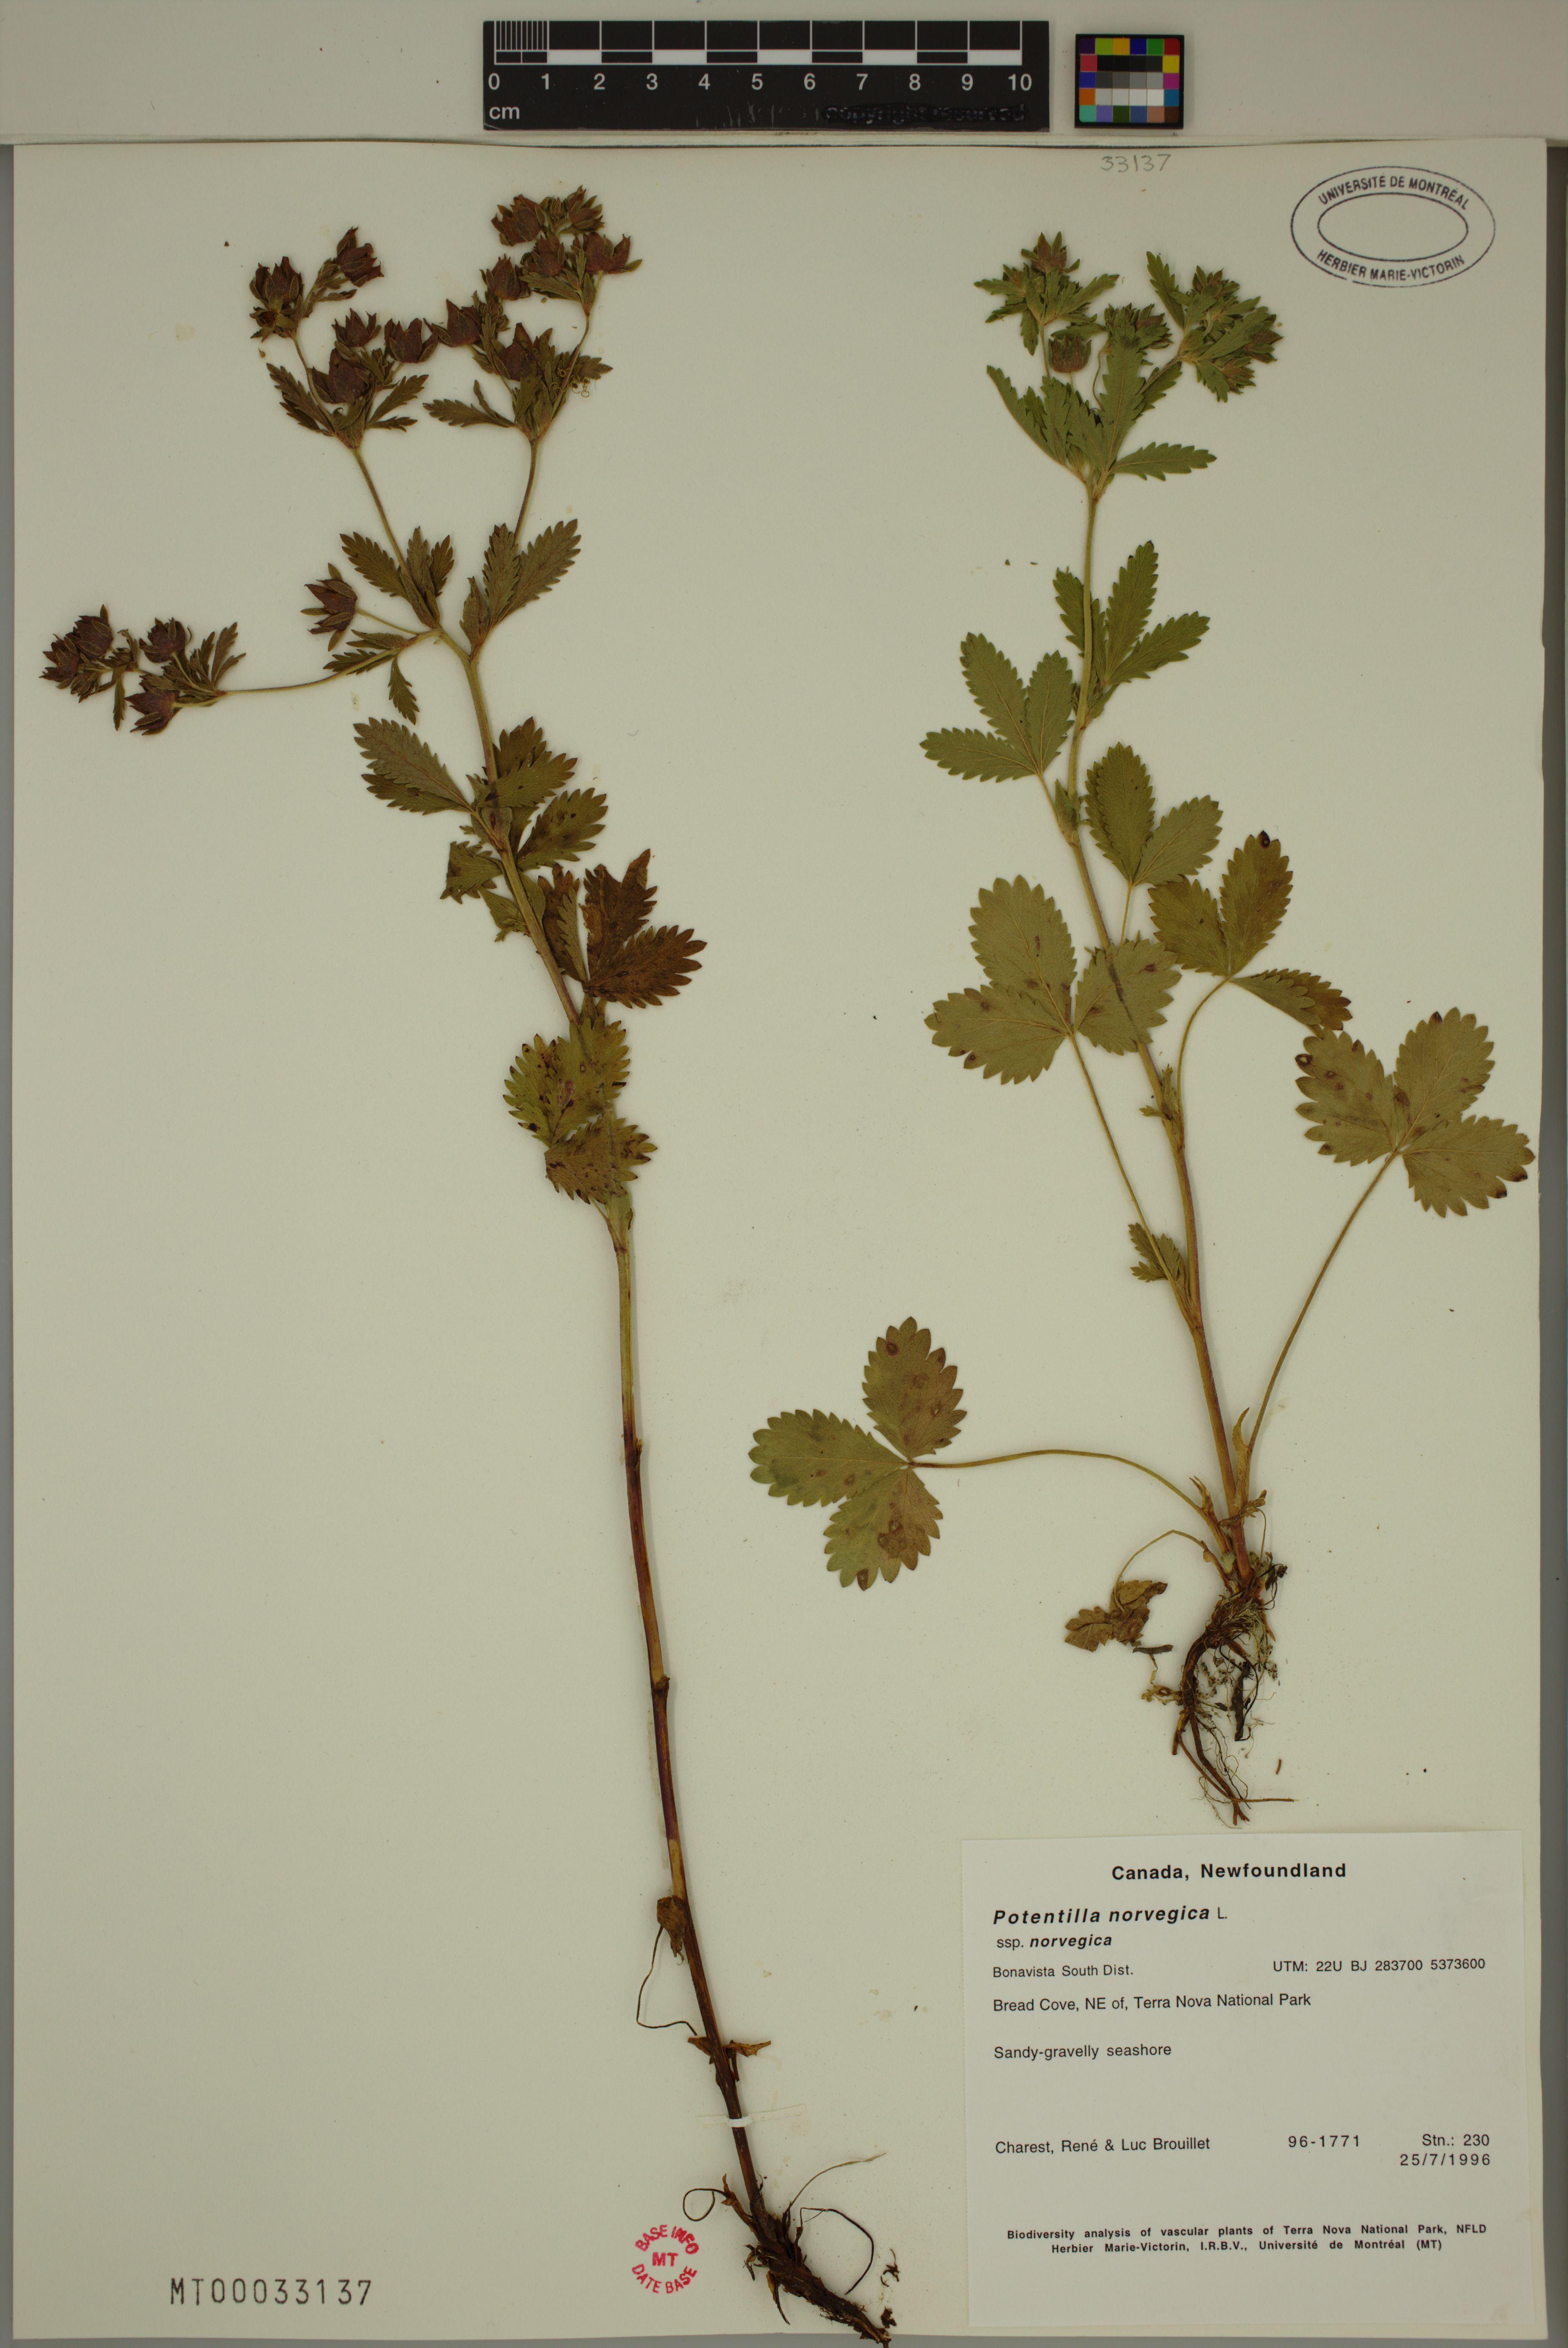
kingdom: Plantae
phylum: Tracheophyta
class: Magnoliopsida
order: Rosales
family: Rosaceae
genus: Potentilla
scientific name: Potentilla norvegica
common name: Ternate-leaved cinquefoil
